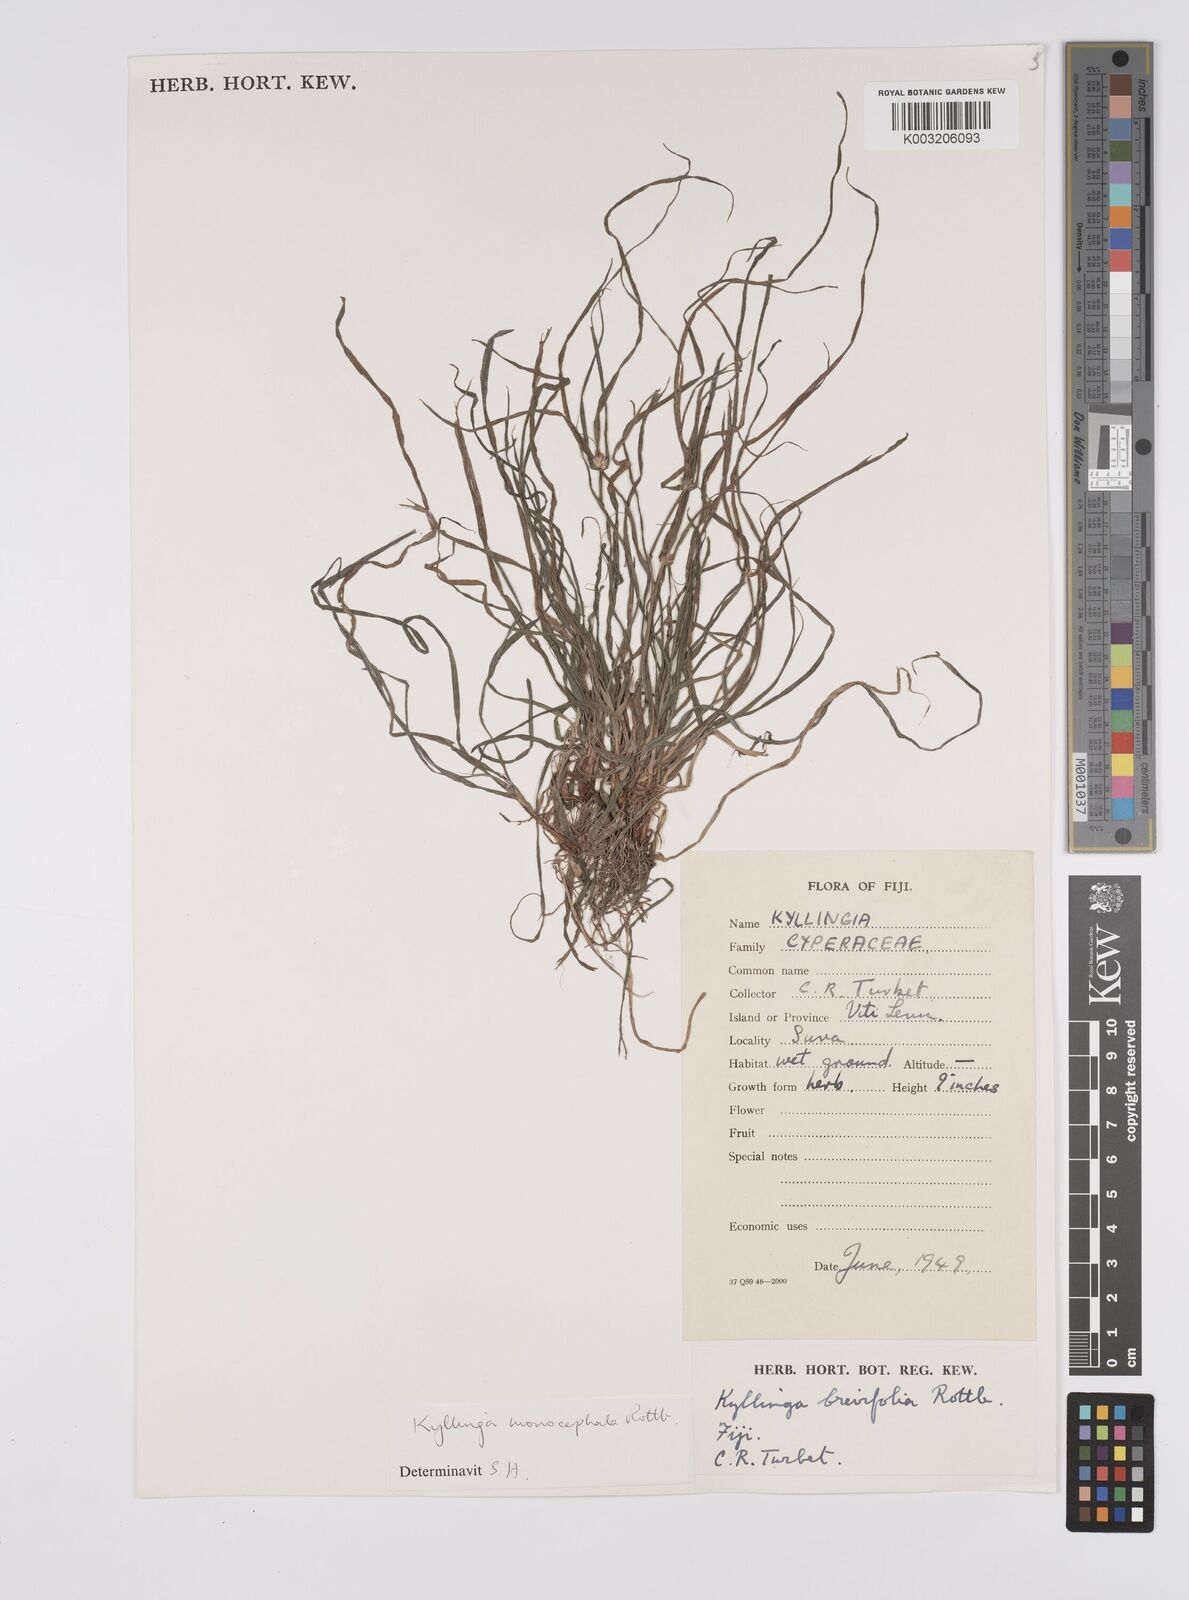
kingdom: Plantae
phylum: Tracheophyta
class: Liliopsida
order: Poales
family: Cyperaceae
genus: Cyperus
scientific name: Cyperus nemoralis
